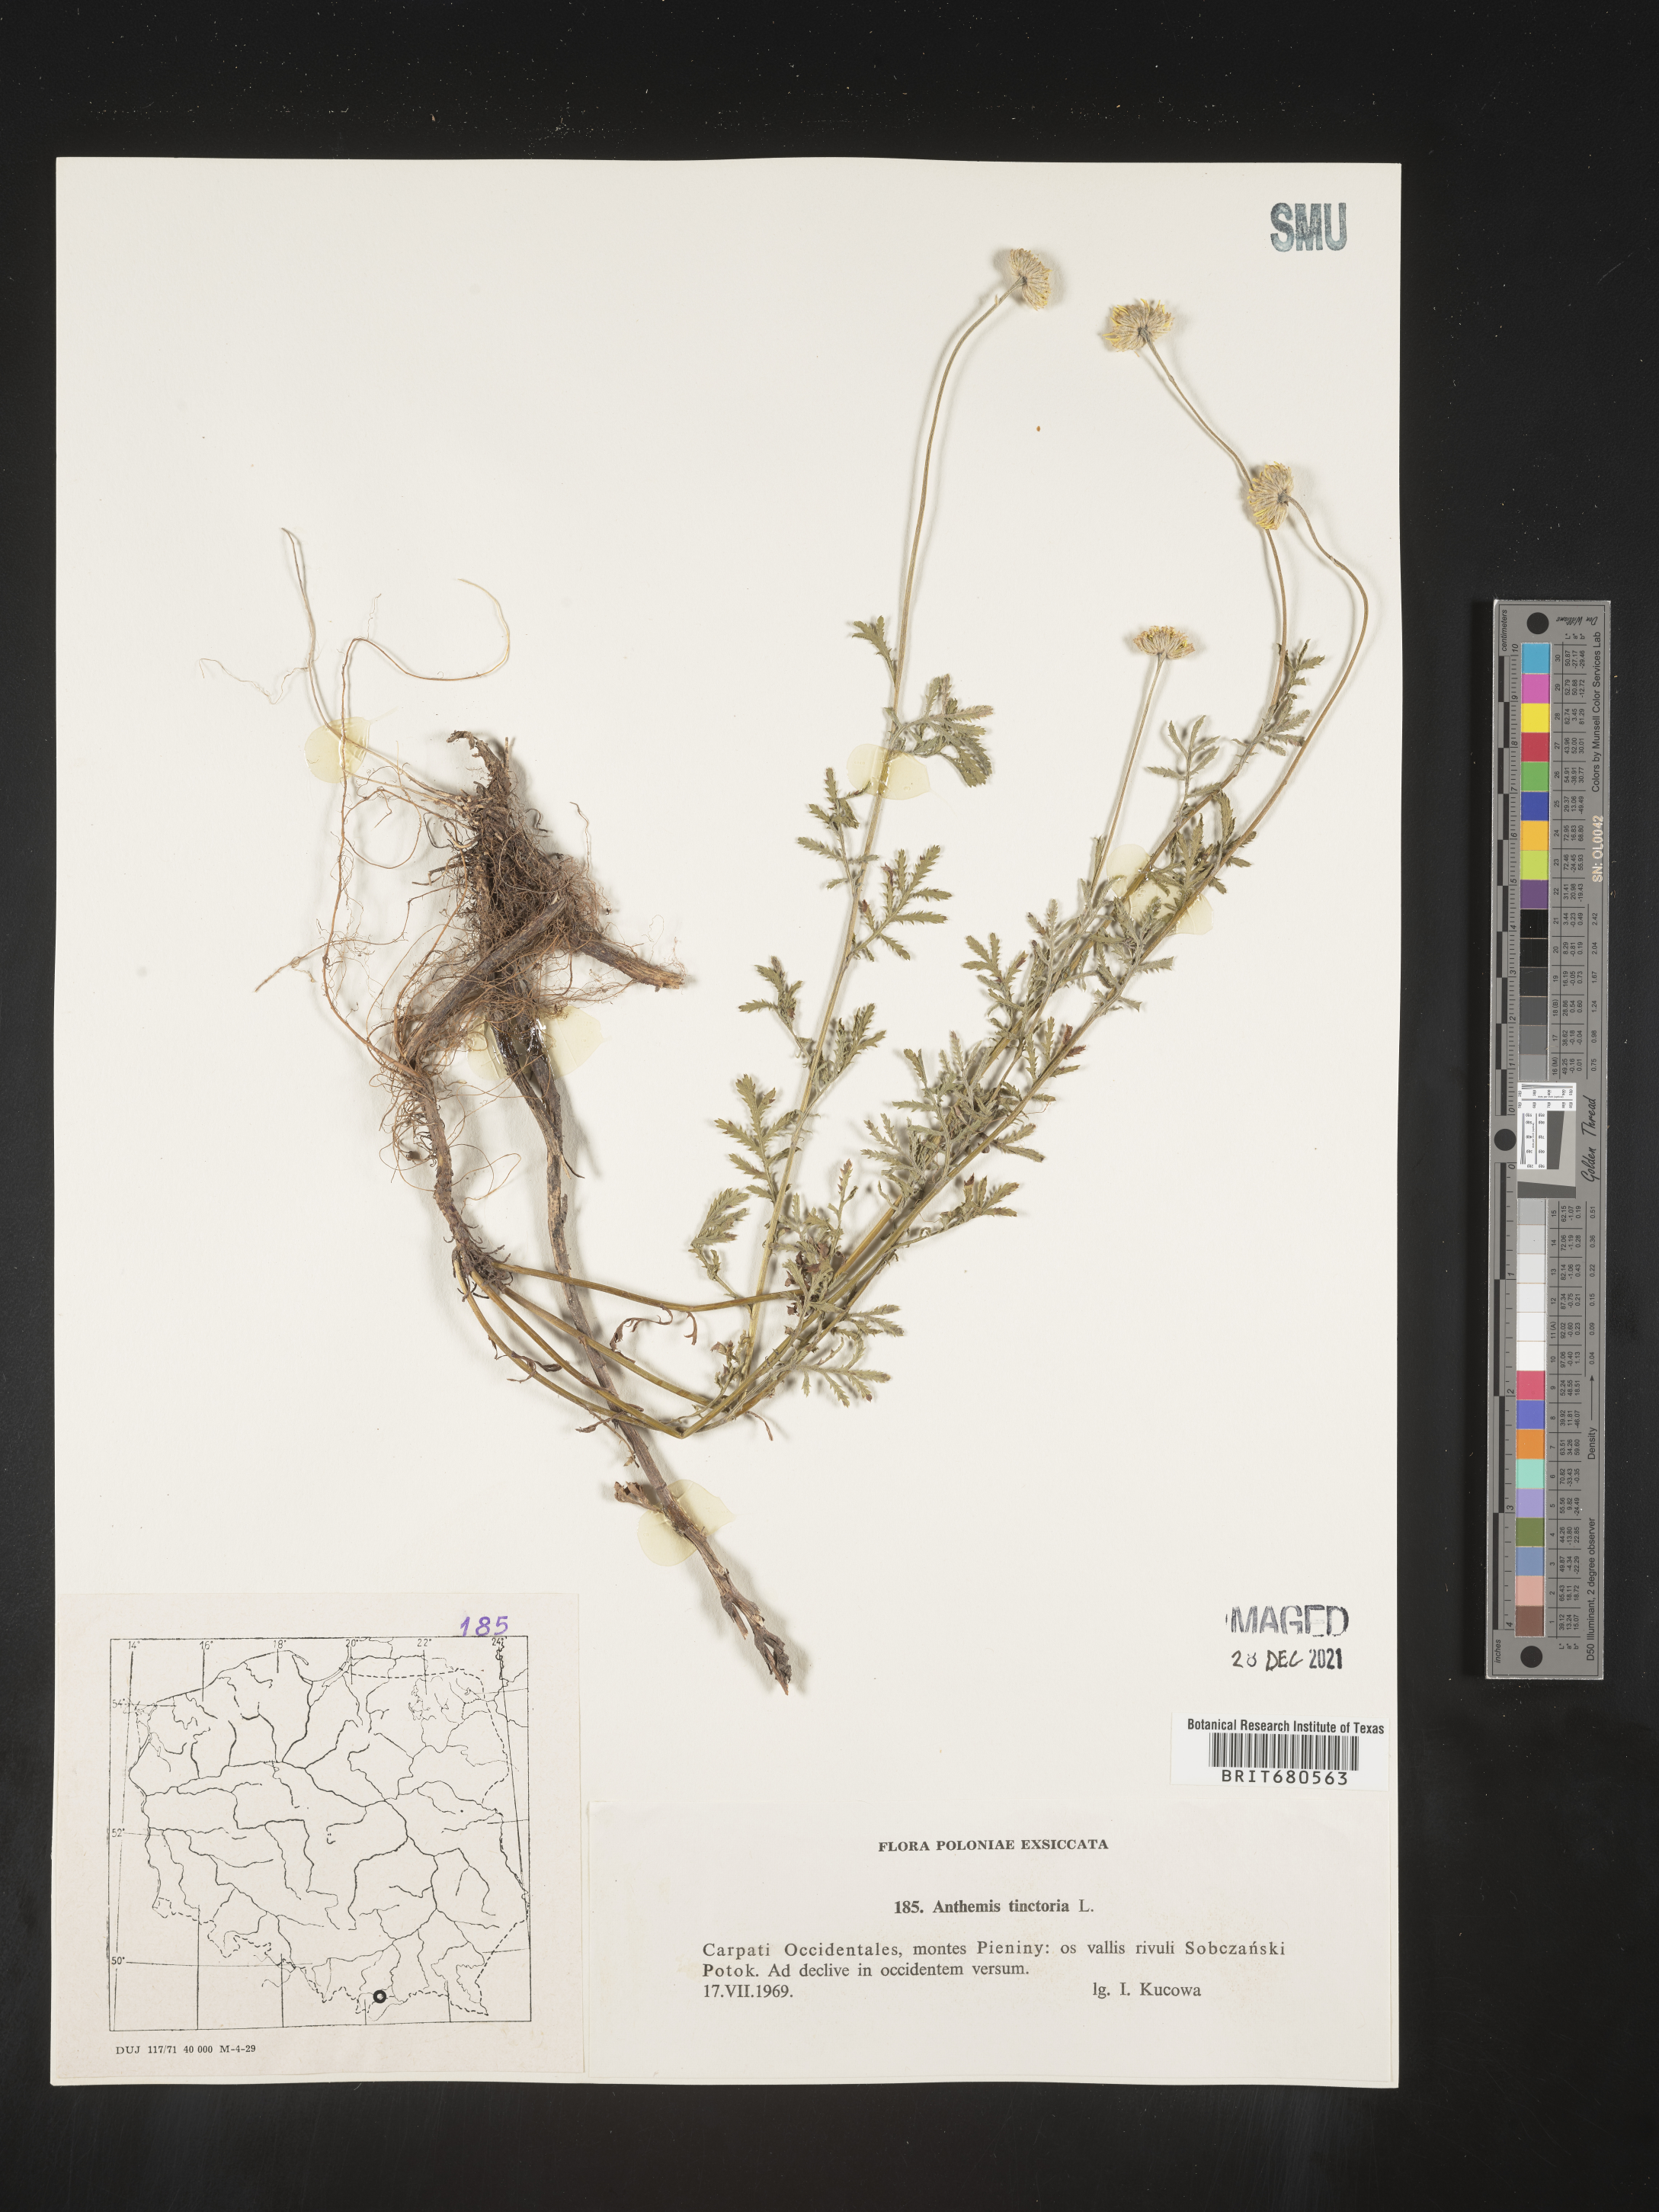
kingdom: Plantae
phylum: Tracheophyta
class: Magnoliopsida
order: Asterales
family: Asteraceae
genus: Anthemis
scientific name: Anthemis
